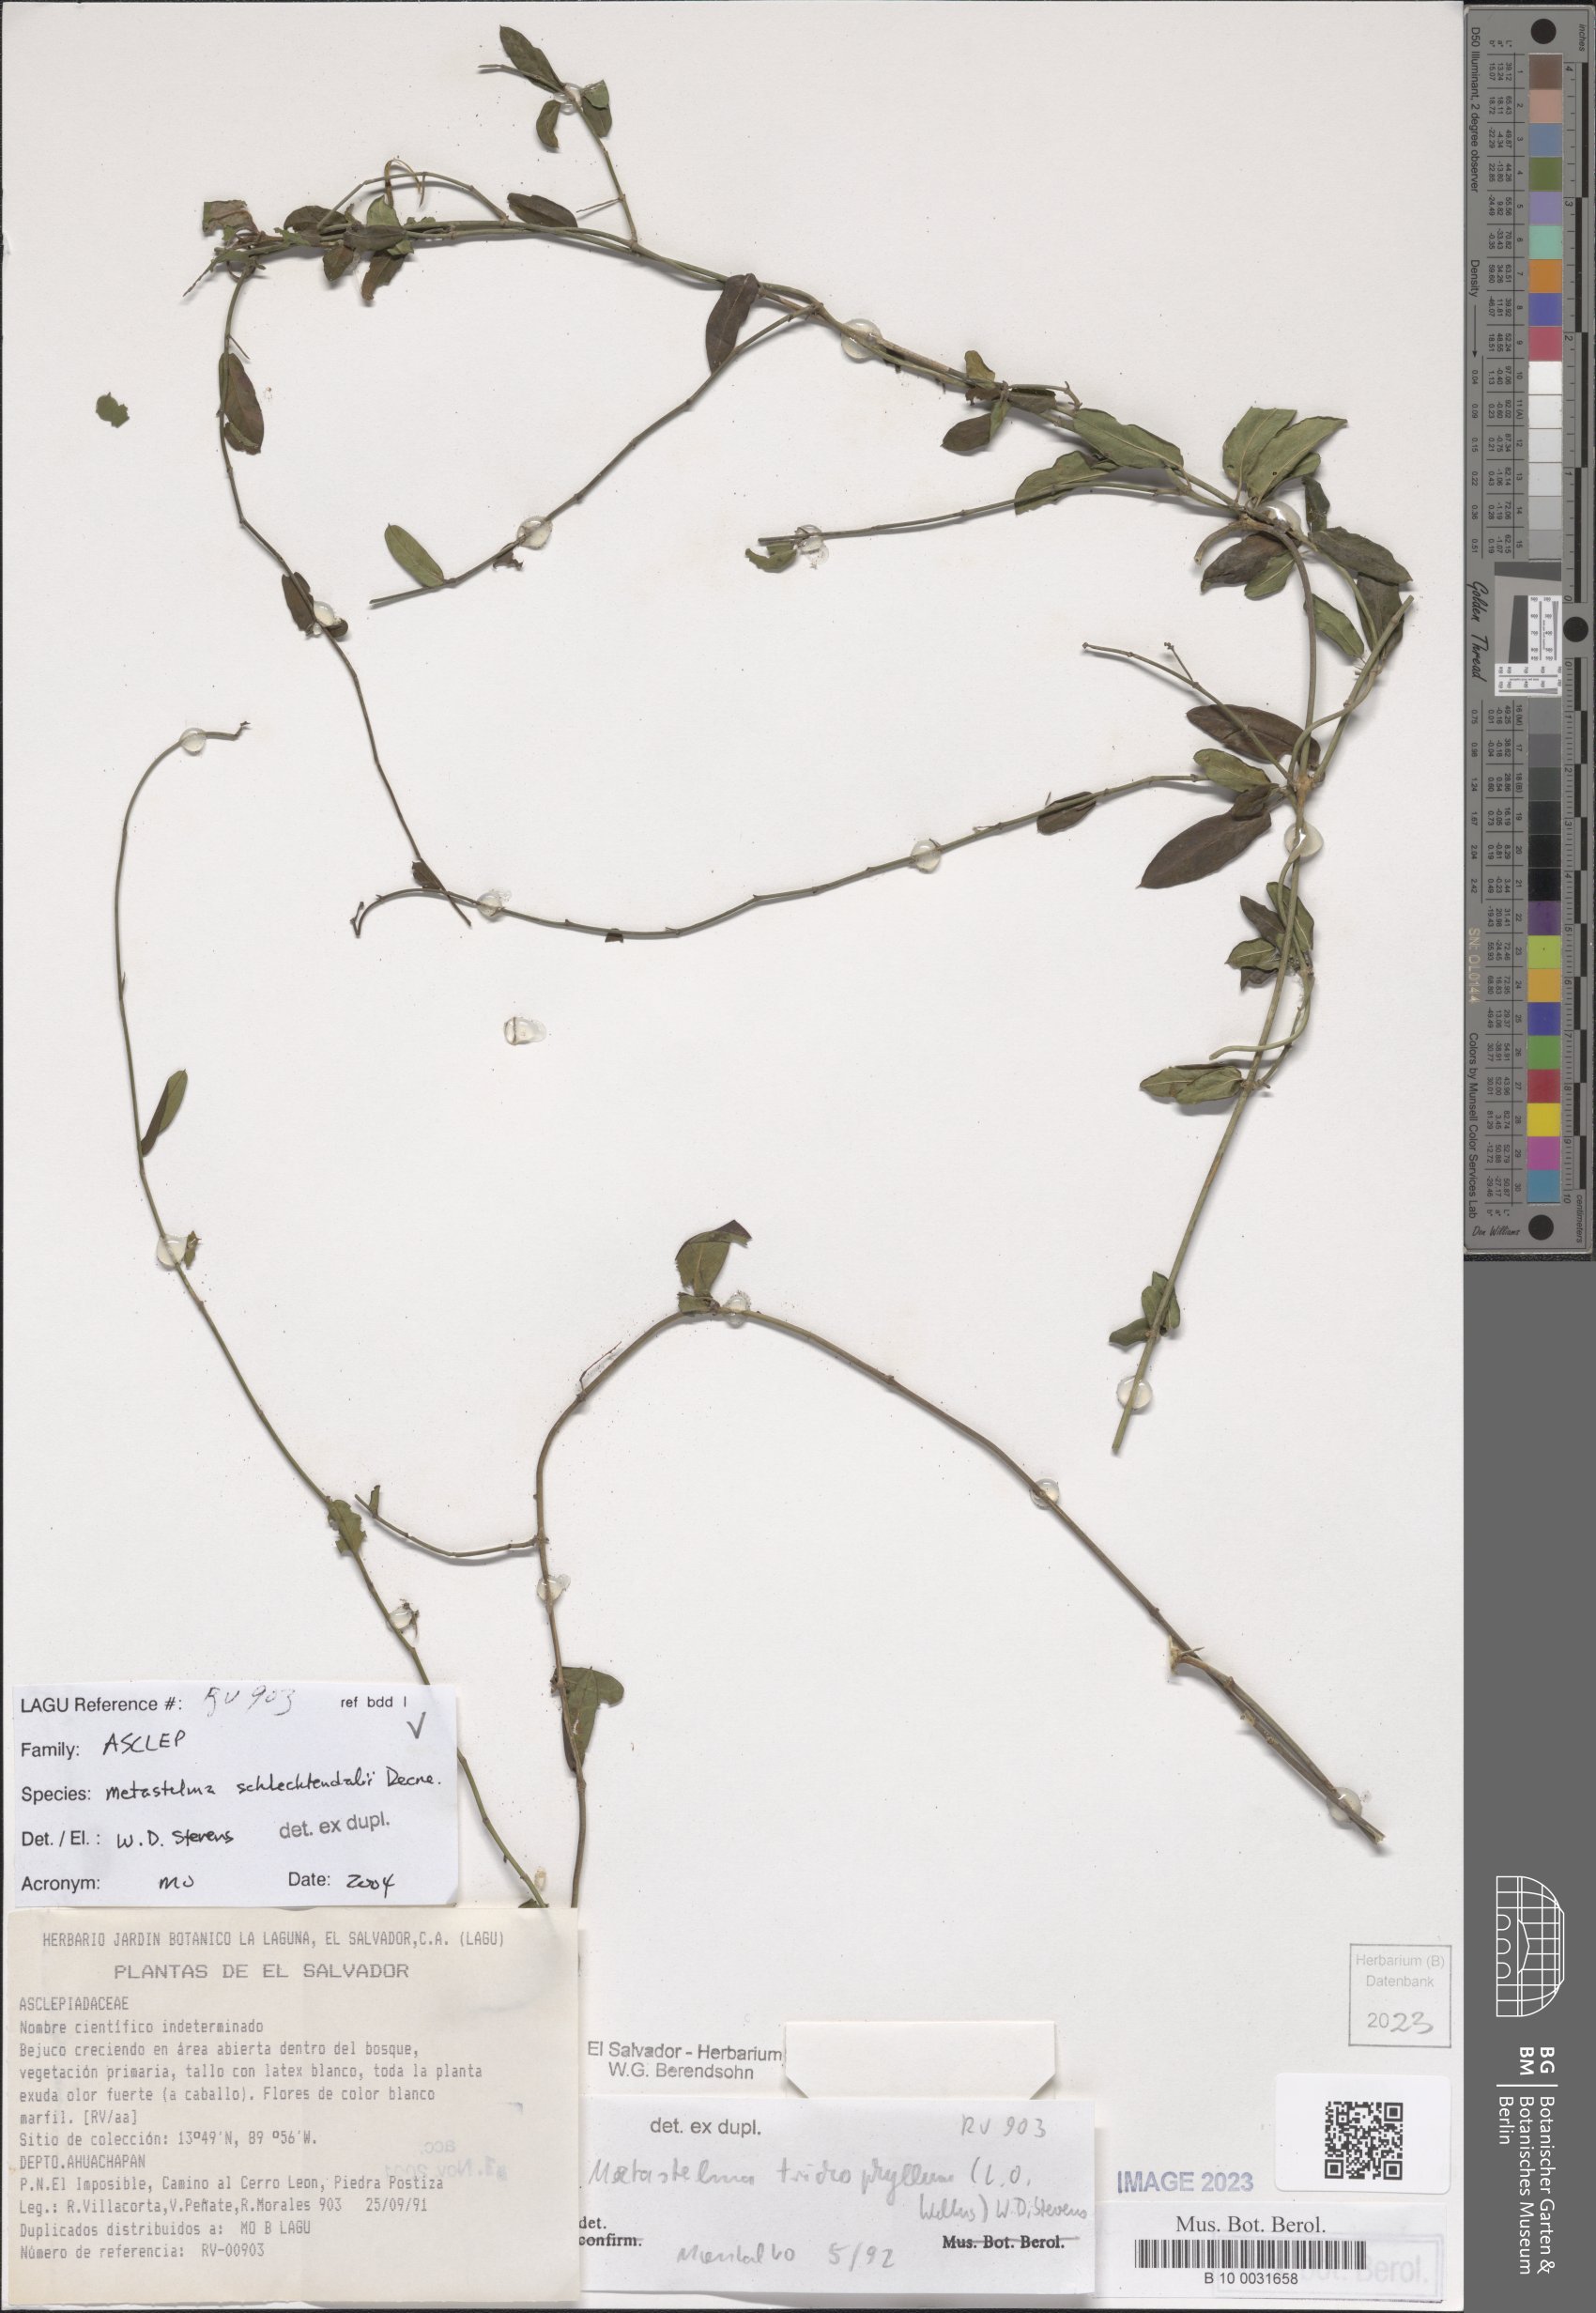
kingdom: Plantae
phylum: Tracheophyta
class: Magnoliopsida
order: Gentianales
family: Apocynaceae
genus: Metastelma
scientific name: Metastelma schlechtendalii
